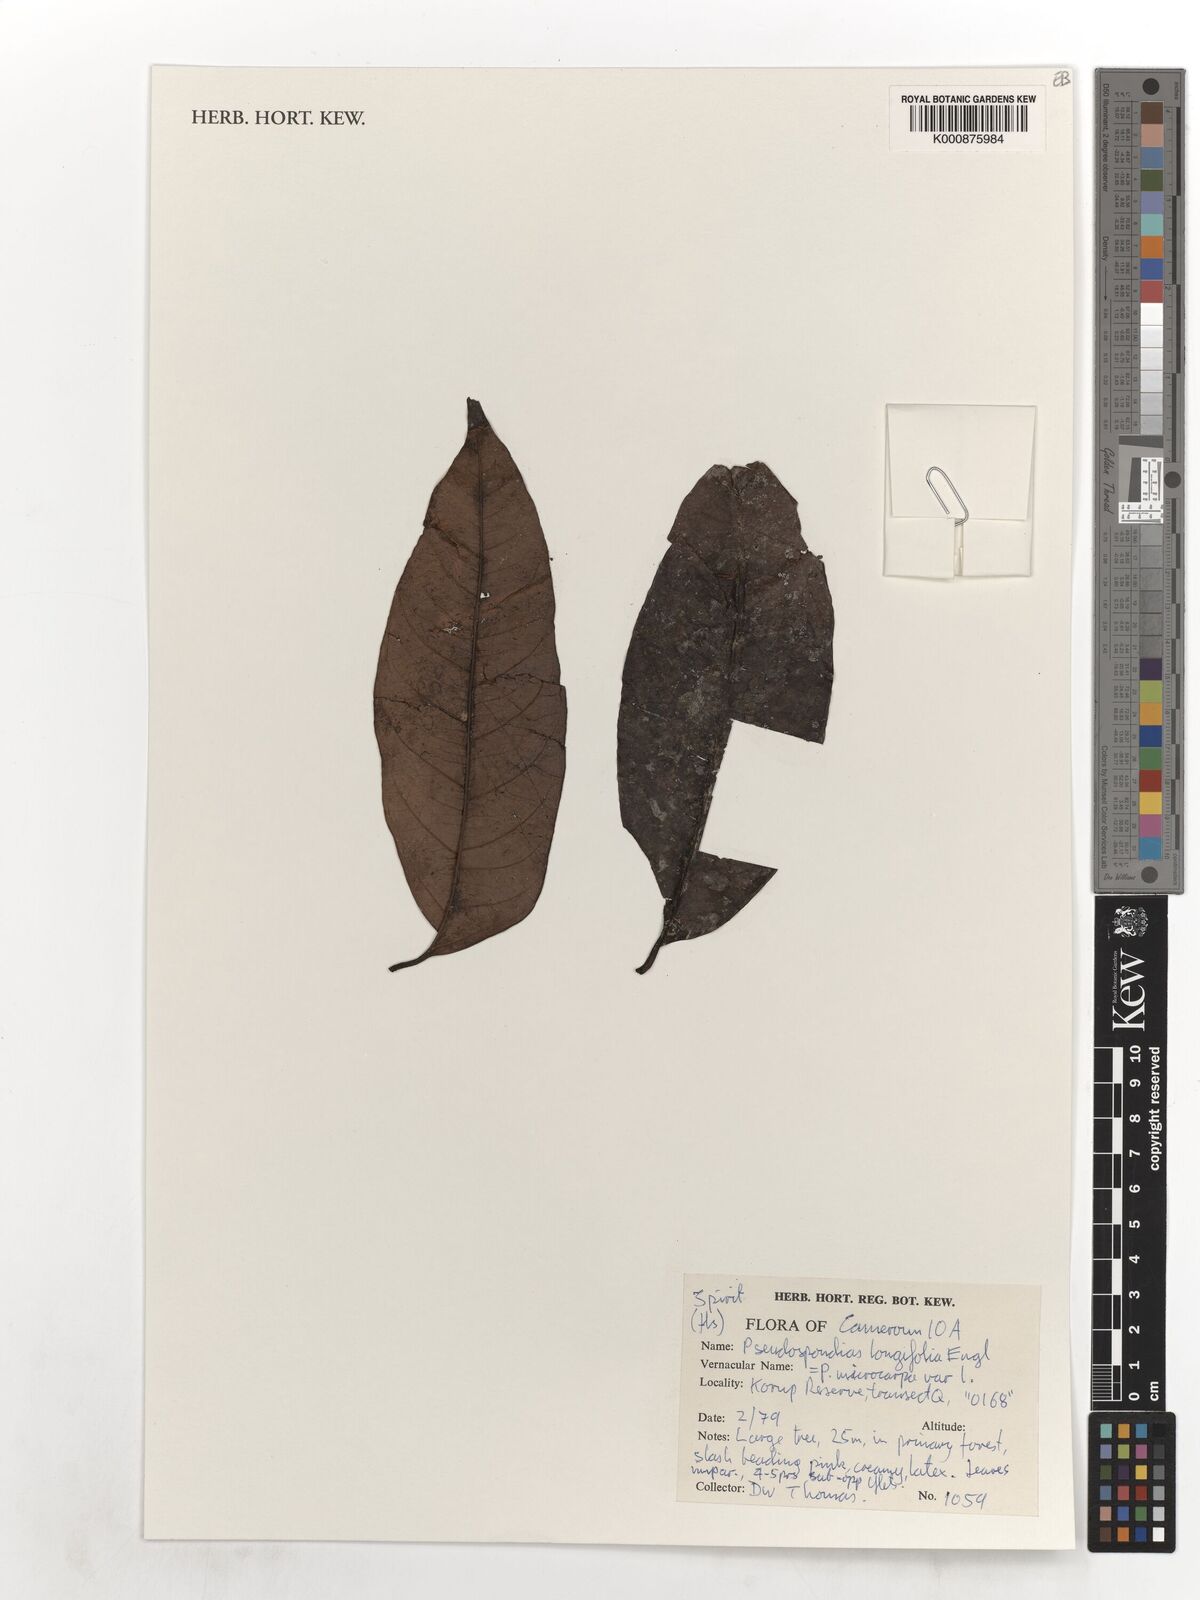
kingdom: Plantae
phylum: Tracheophyta
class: Magnoliopsida
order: Sapindales
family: Anacardiaceae
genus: Pseudospondias
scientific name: Pseudospondias longifolia
